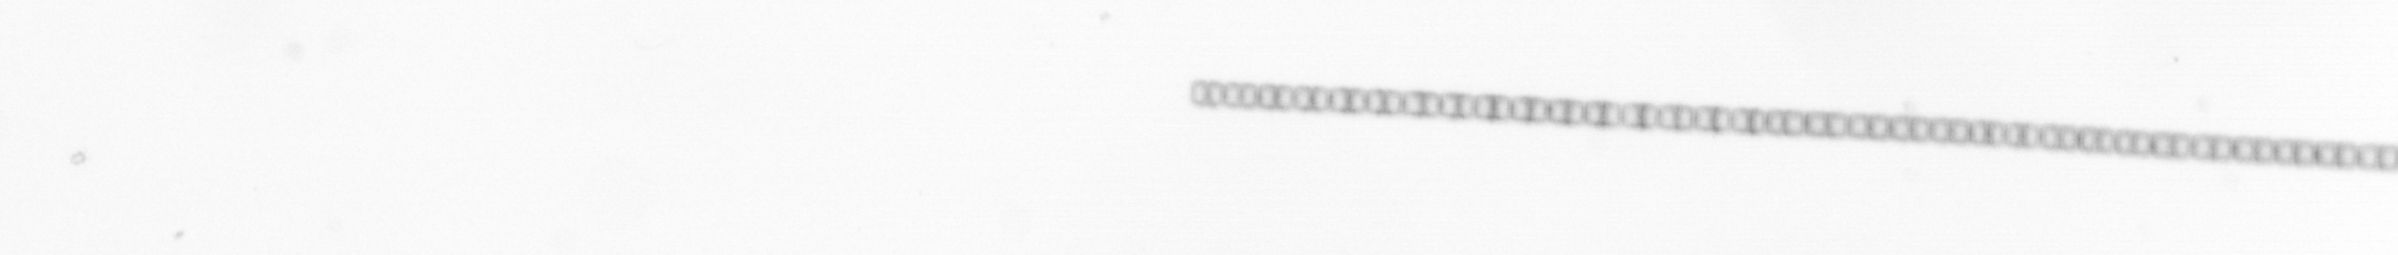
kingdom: Chromista
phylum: Ochrophyta
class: Bacillariophyceae
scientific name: Bacillariophyceae
